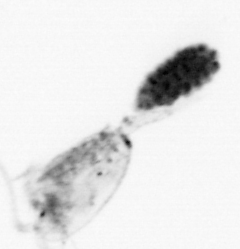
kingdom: Animalia
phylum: Arthropoda
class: Copepoda
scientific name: Copepoda
